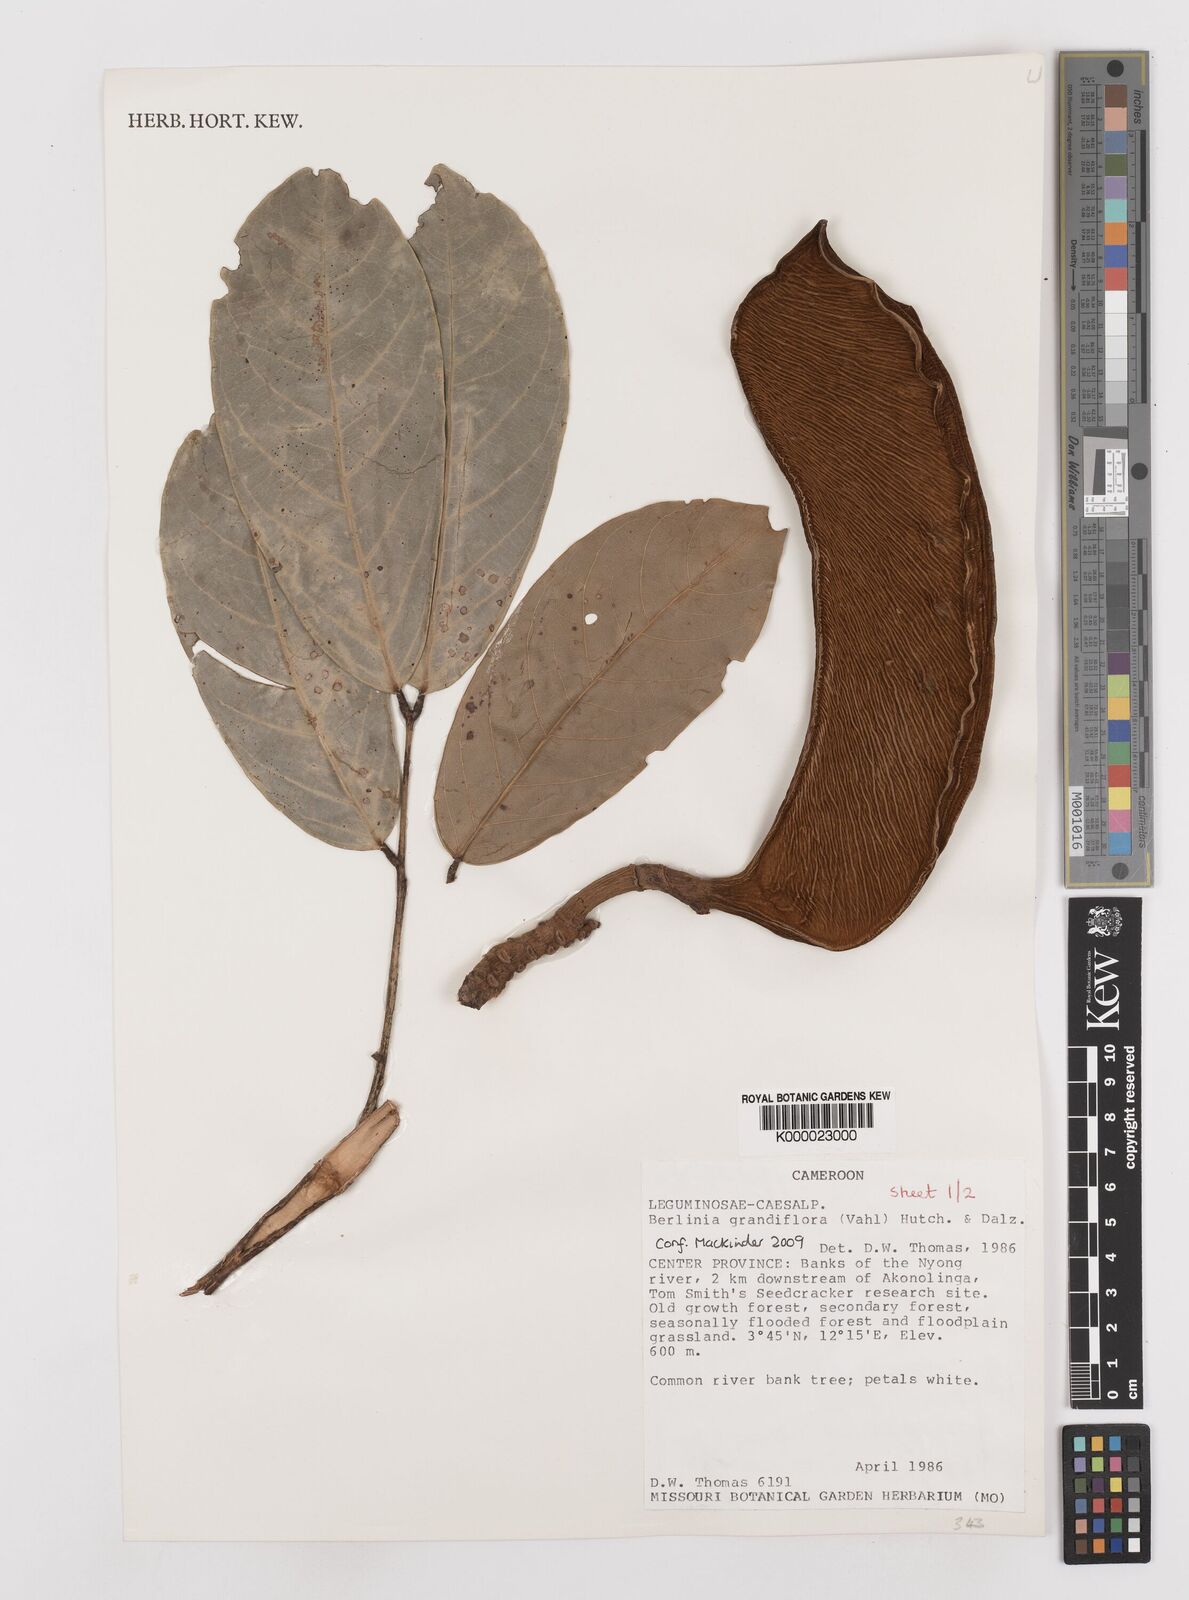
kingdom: Plantae
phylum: Tracheophyta
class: Magnoliopsida
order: Fabales
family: Fabaceae
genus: Berlinia
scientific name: Berlinia
